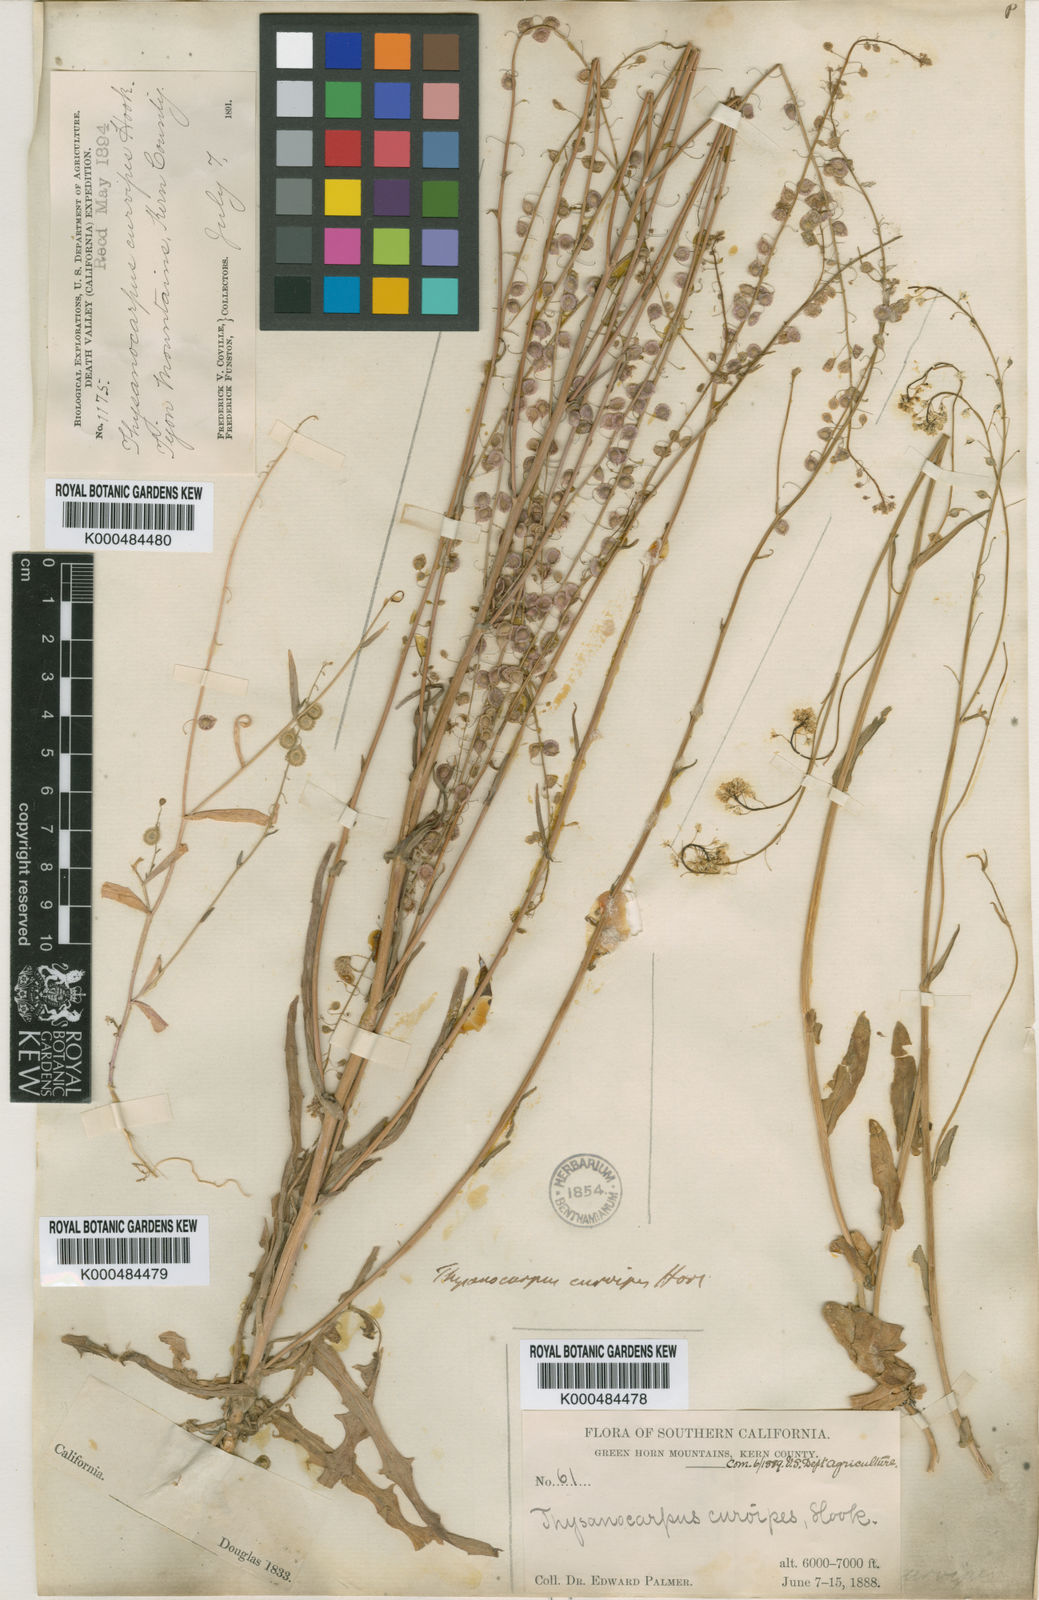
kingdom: Plantae
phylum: Tracheophyta
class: Magnoliopsida
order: Brassicales
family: Brassicaceae
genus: Thysanocarpus
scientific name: Thysanocarpus curvipes
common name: Sand fringepod
